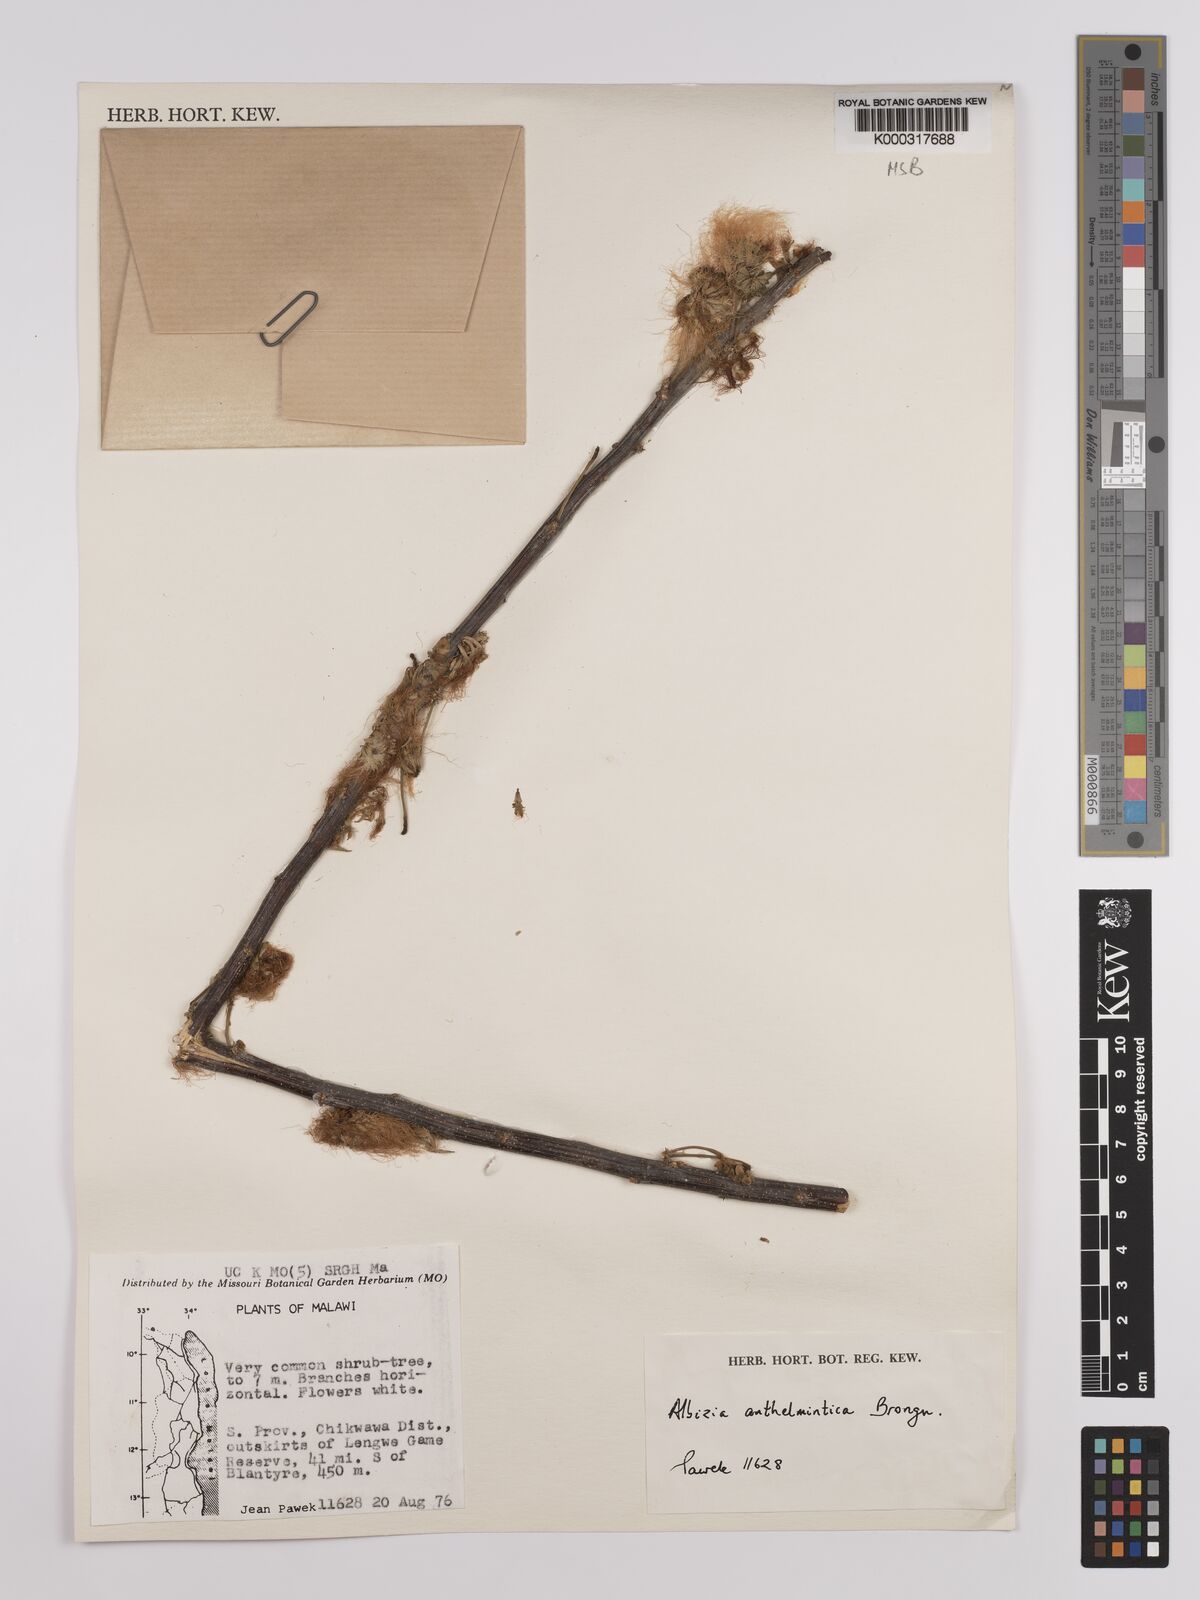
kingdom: Plantae
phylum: Tracheophyta
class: Magnoliopsida
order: Fabales
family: Fabaceae
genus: Albizia
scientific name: Albizia anthelmintica
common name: Worm-bark false-thorn
